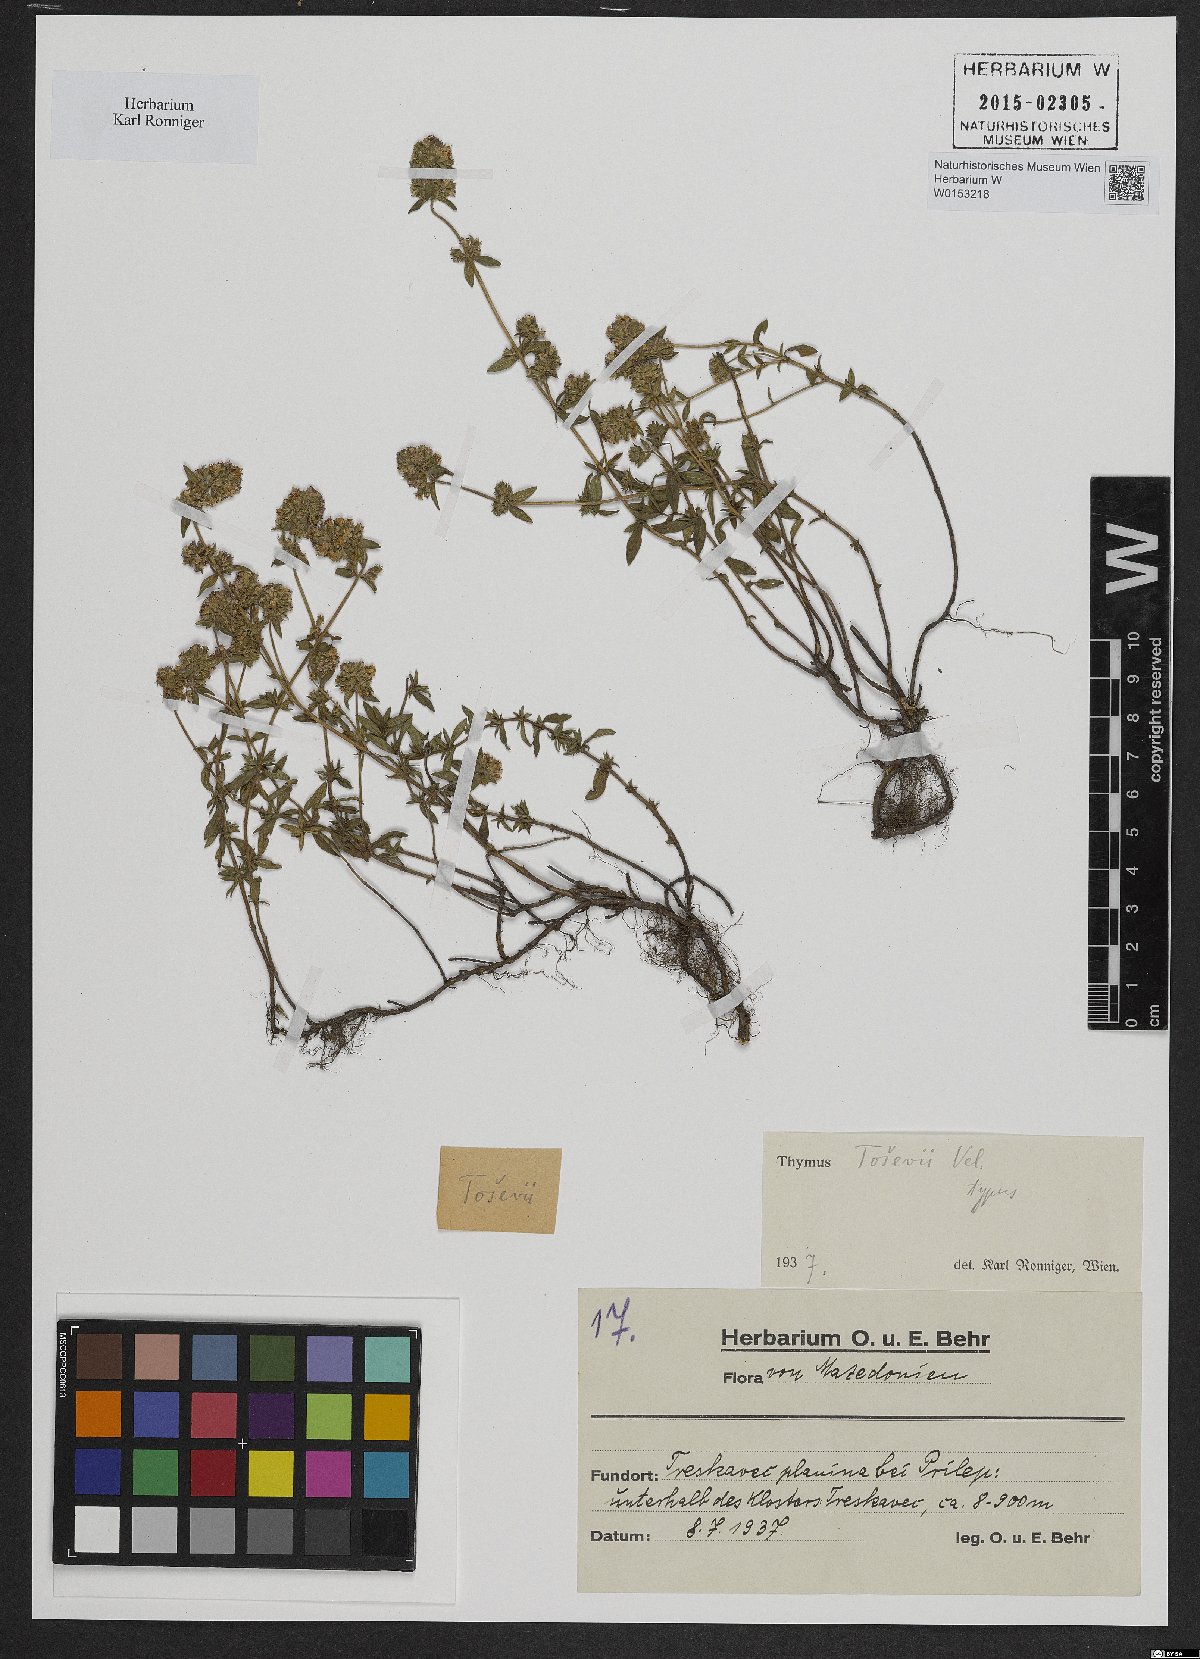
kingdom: Plantae
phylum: Tracheophyta
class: Magnoliopsida
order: Lamiales
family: Lamiaceae
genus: Thymus
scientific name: Thymus sibthorpii
